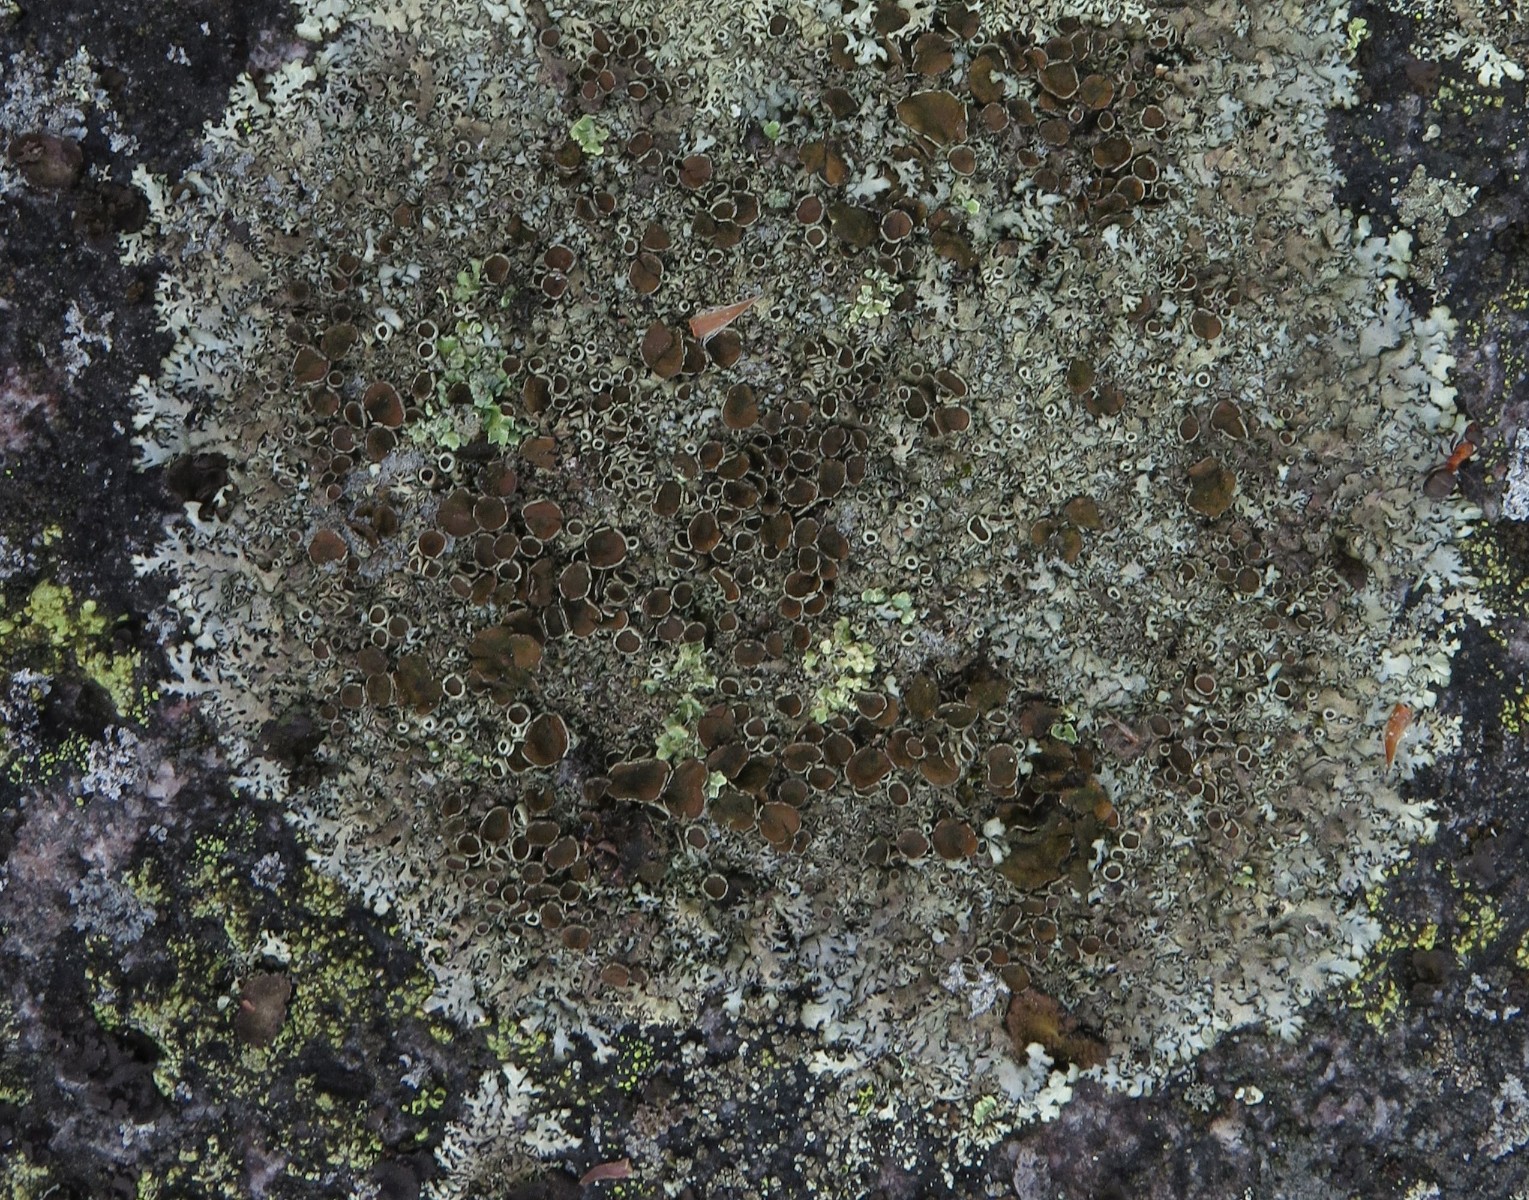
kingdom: Fungi
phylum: Ascomycota
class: Lecanoromycetes
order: Lecanorales
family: Parmeliaceae
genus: Parmelia
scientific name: Parmelia saxatilis
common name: farve-skållav
